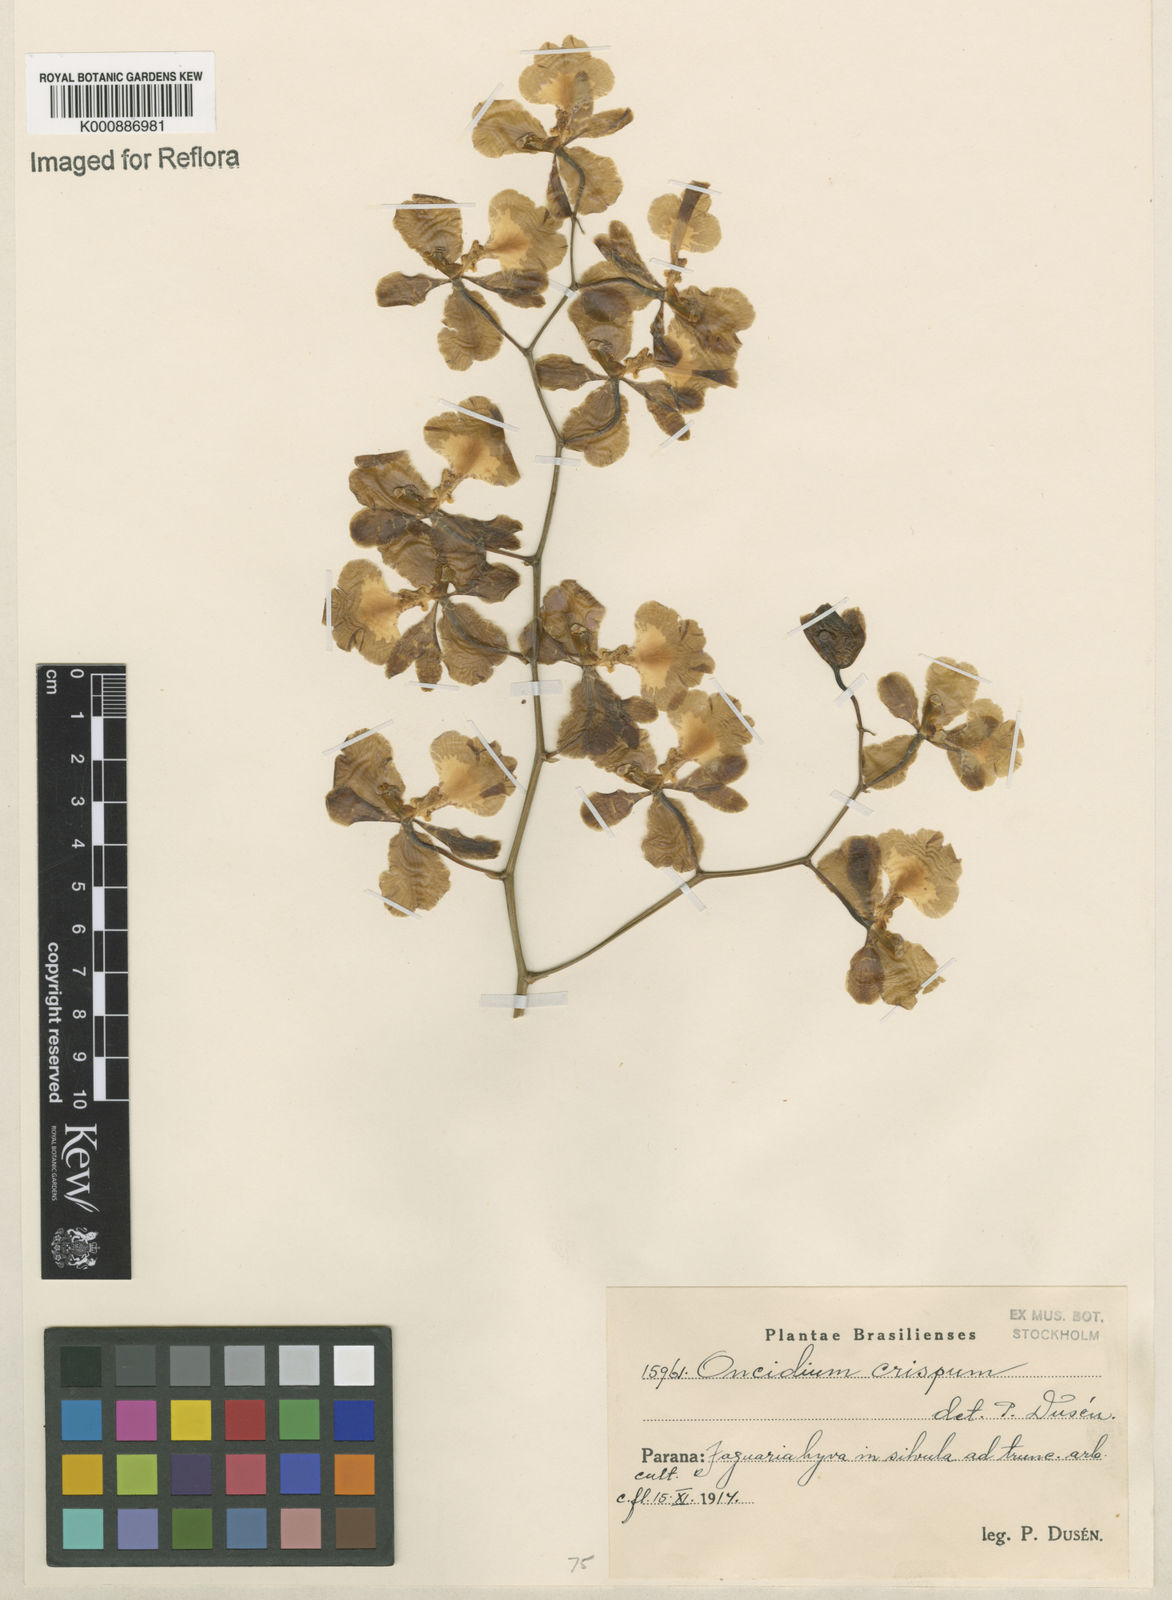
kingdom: Plantae
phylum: Tracheophyta
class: Liliopsida
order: Asparagales
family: Orchidaceae
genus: Gomesa
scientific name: Gomesa imperatoris-maximiliani
